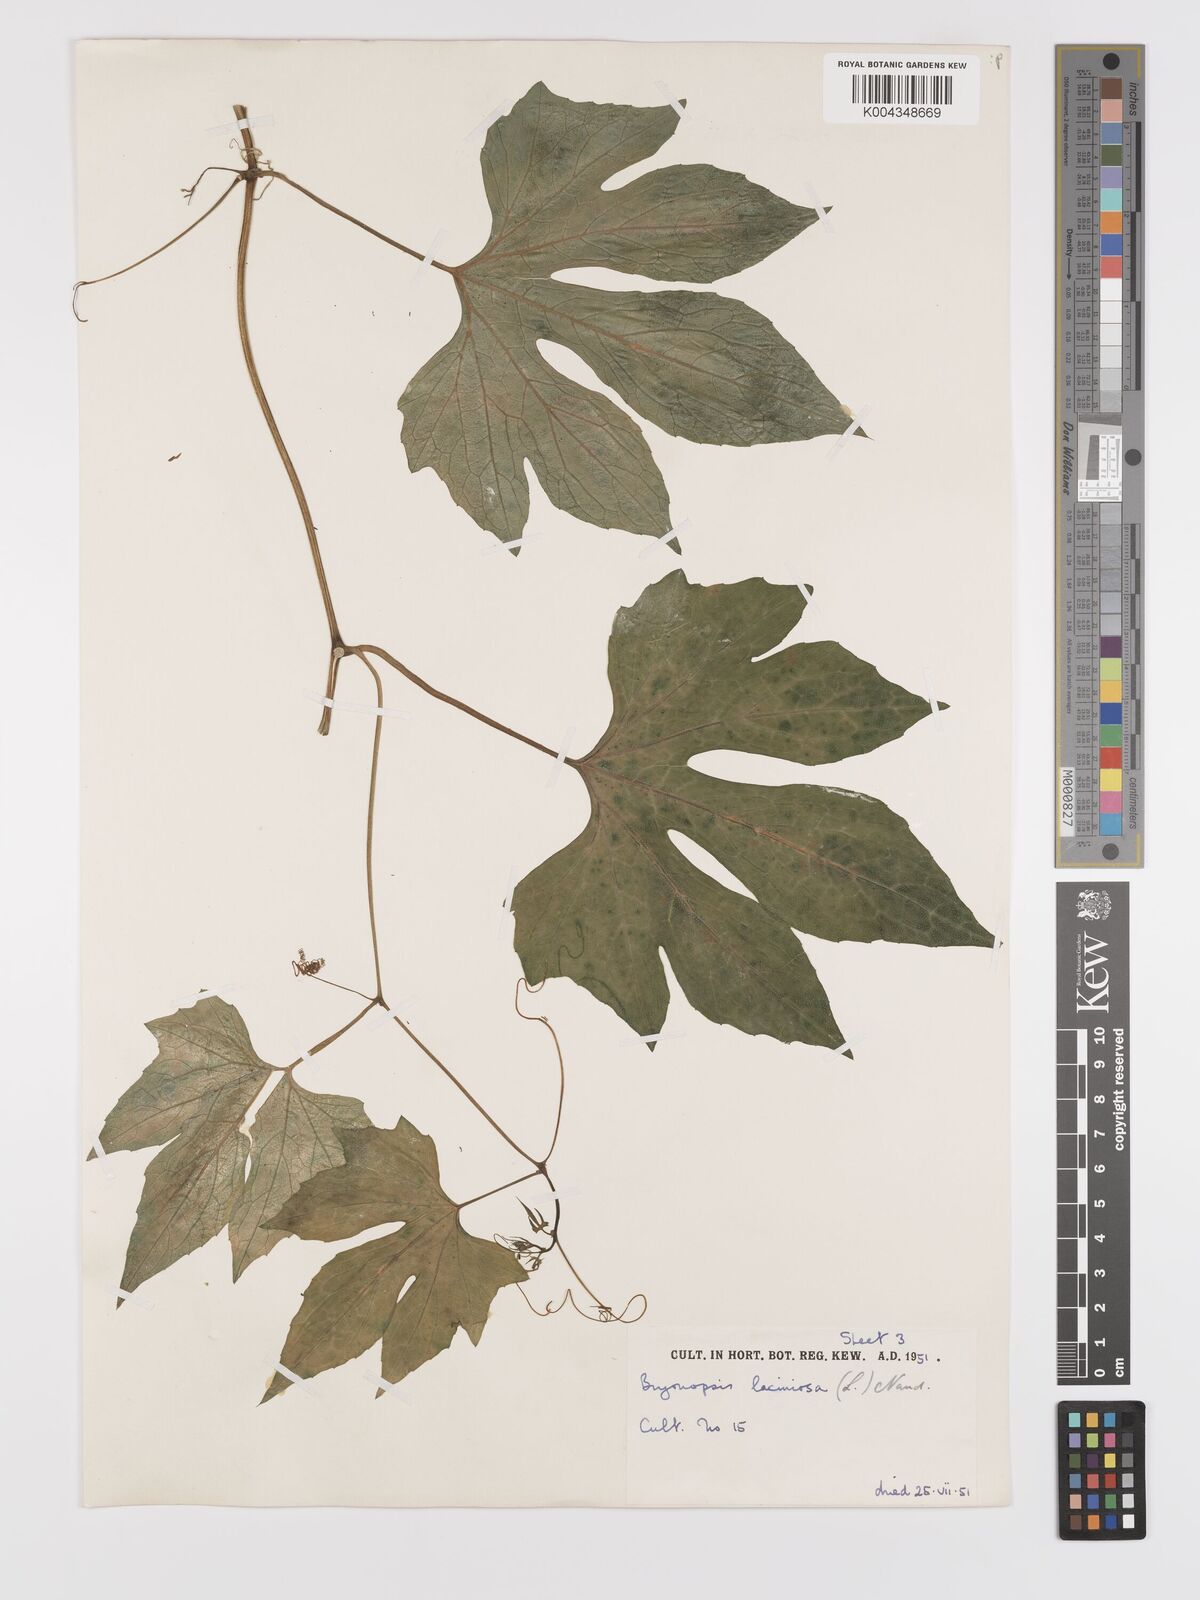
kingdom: Plantae
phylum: Tracheophyta
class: Magnoliopsida
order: Cucurbitales
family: Cucurbitaceae
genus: Diplocyclos
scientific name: Diplocyclos palmatus
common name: Striped-cucumber
